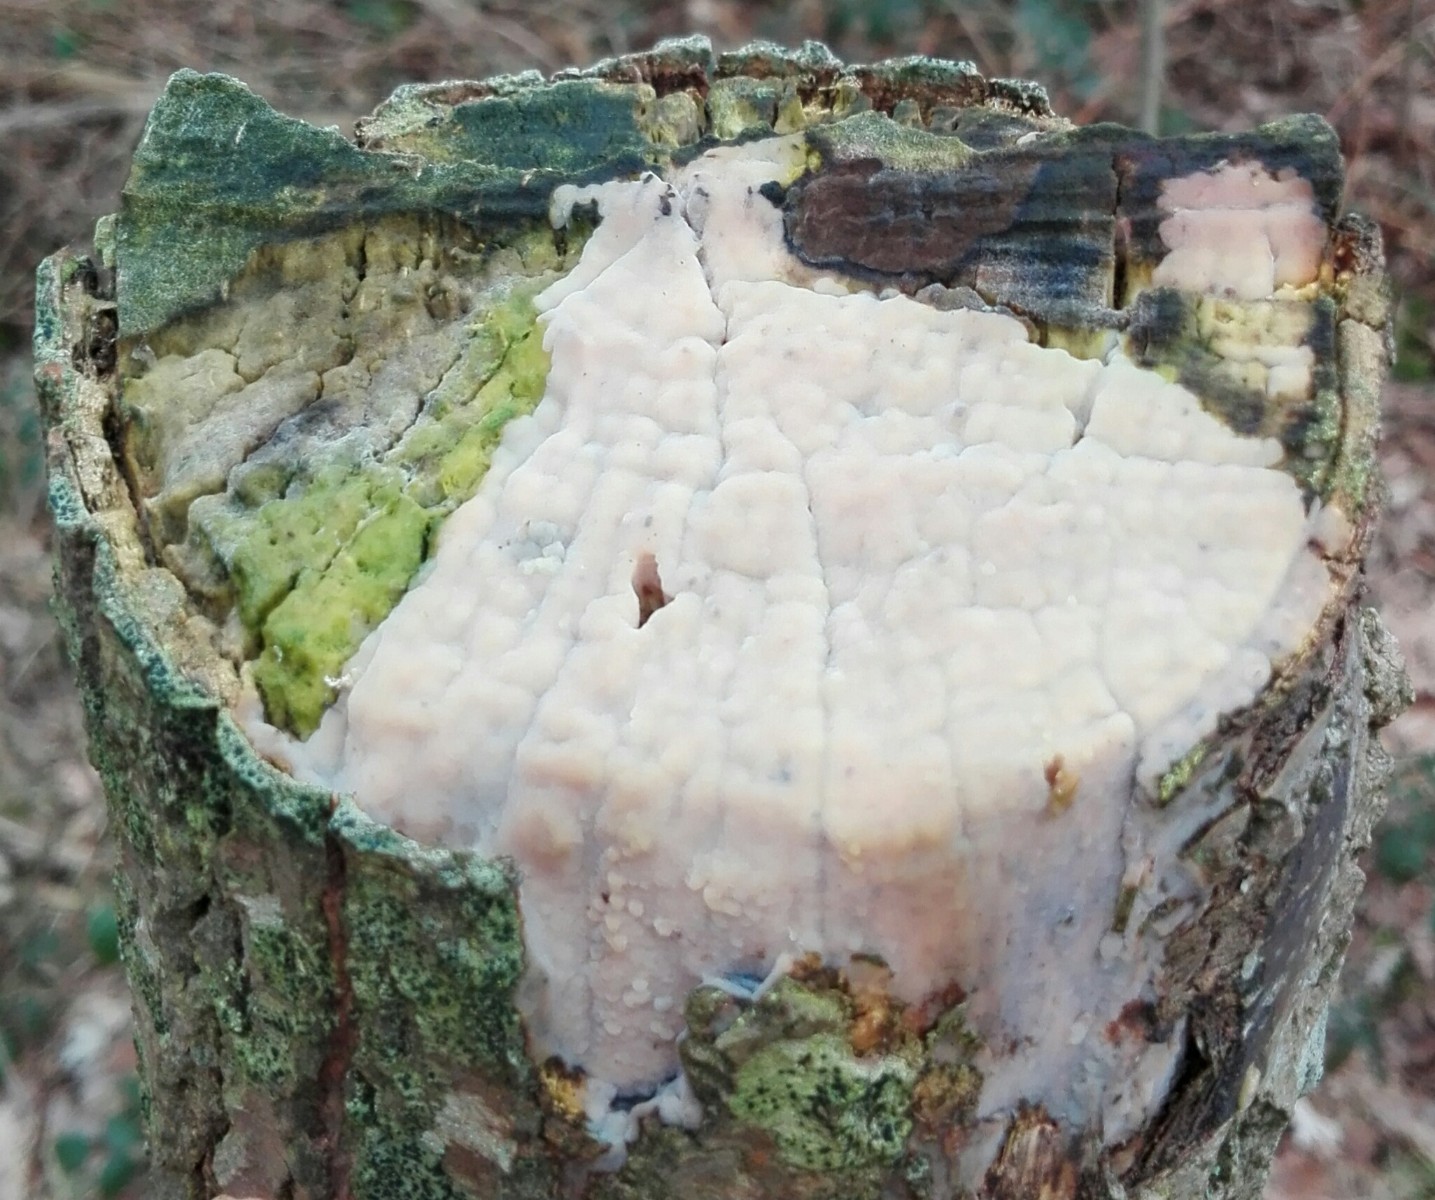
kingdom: Fungi
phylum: Basidiomycota
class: Agaricomycetes
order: Agaricales
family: Radulomycetaceae
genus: Radulomyces
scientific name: Radulomyces confluens
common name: glat naftalinskind
